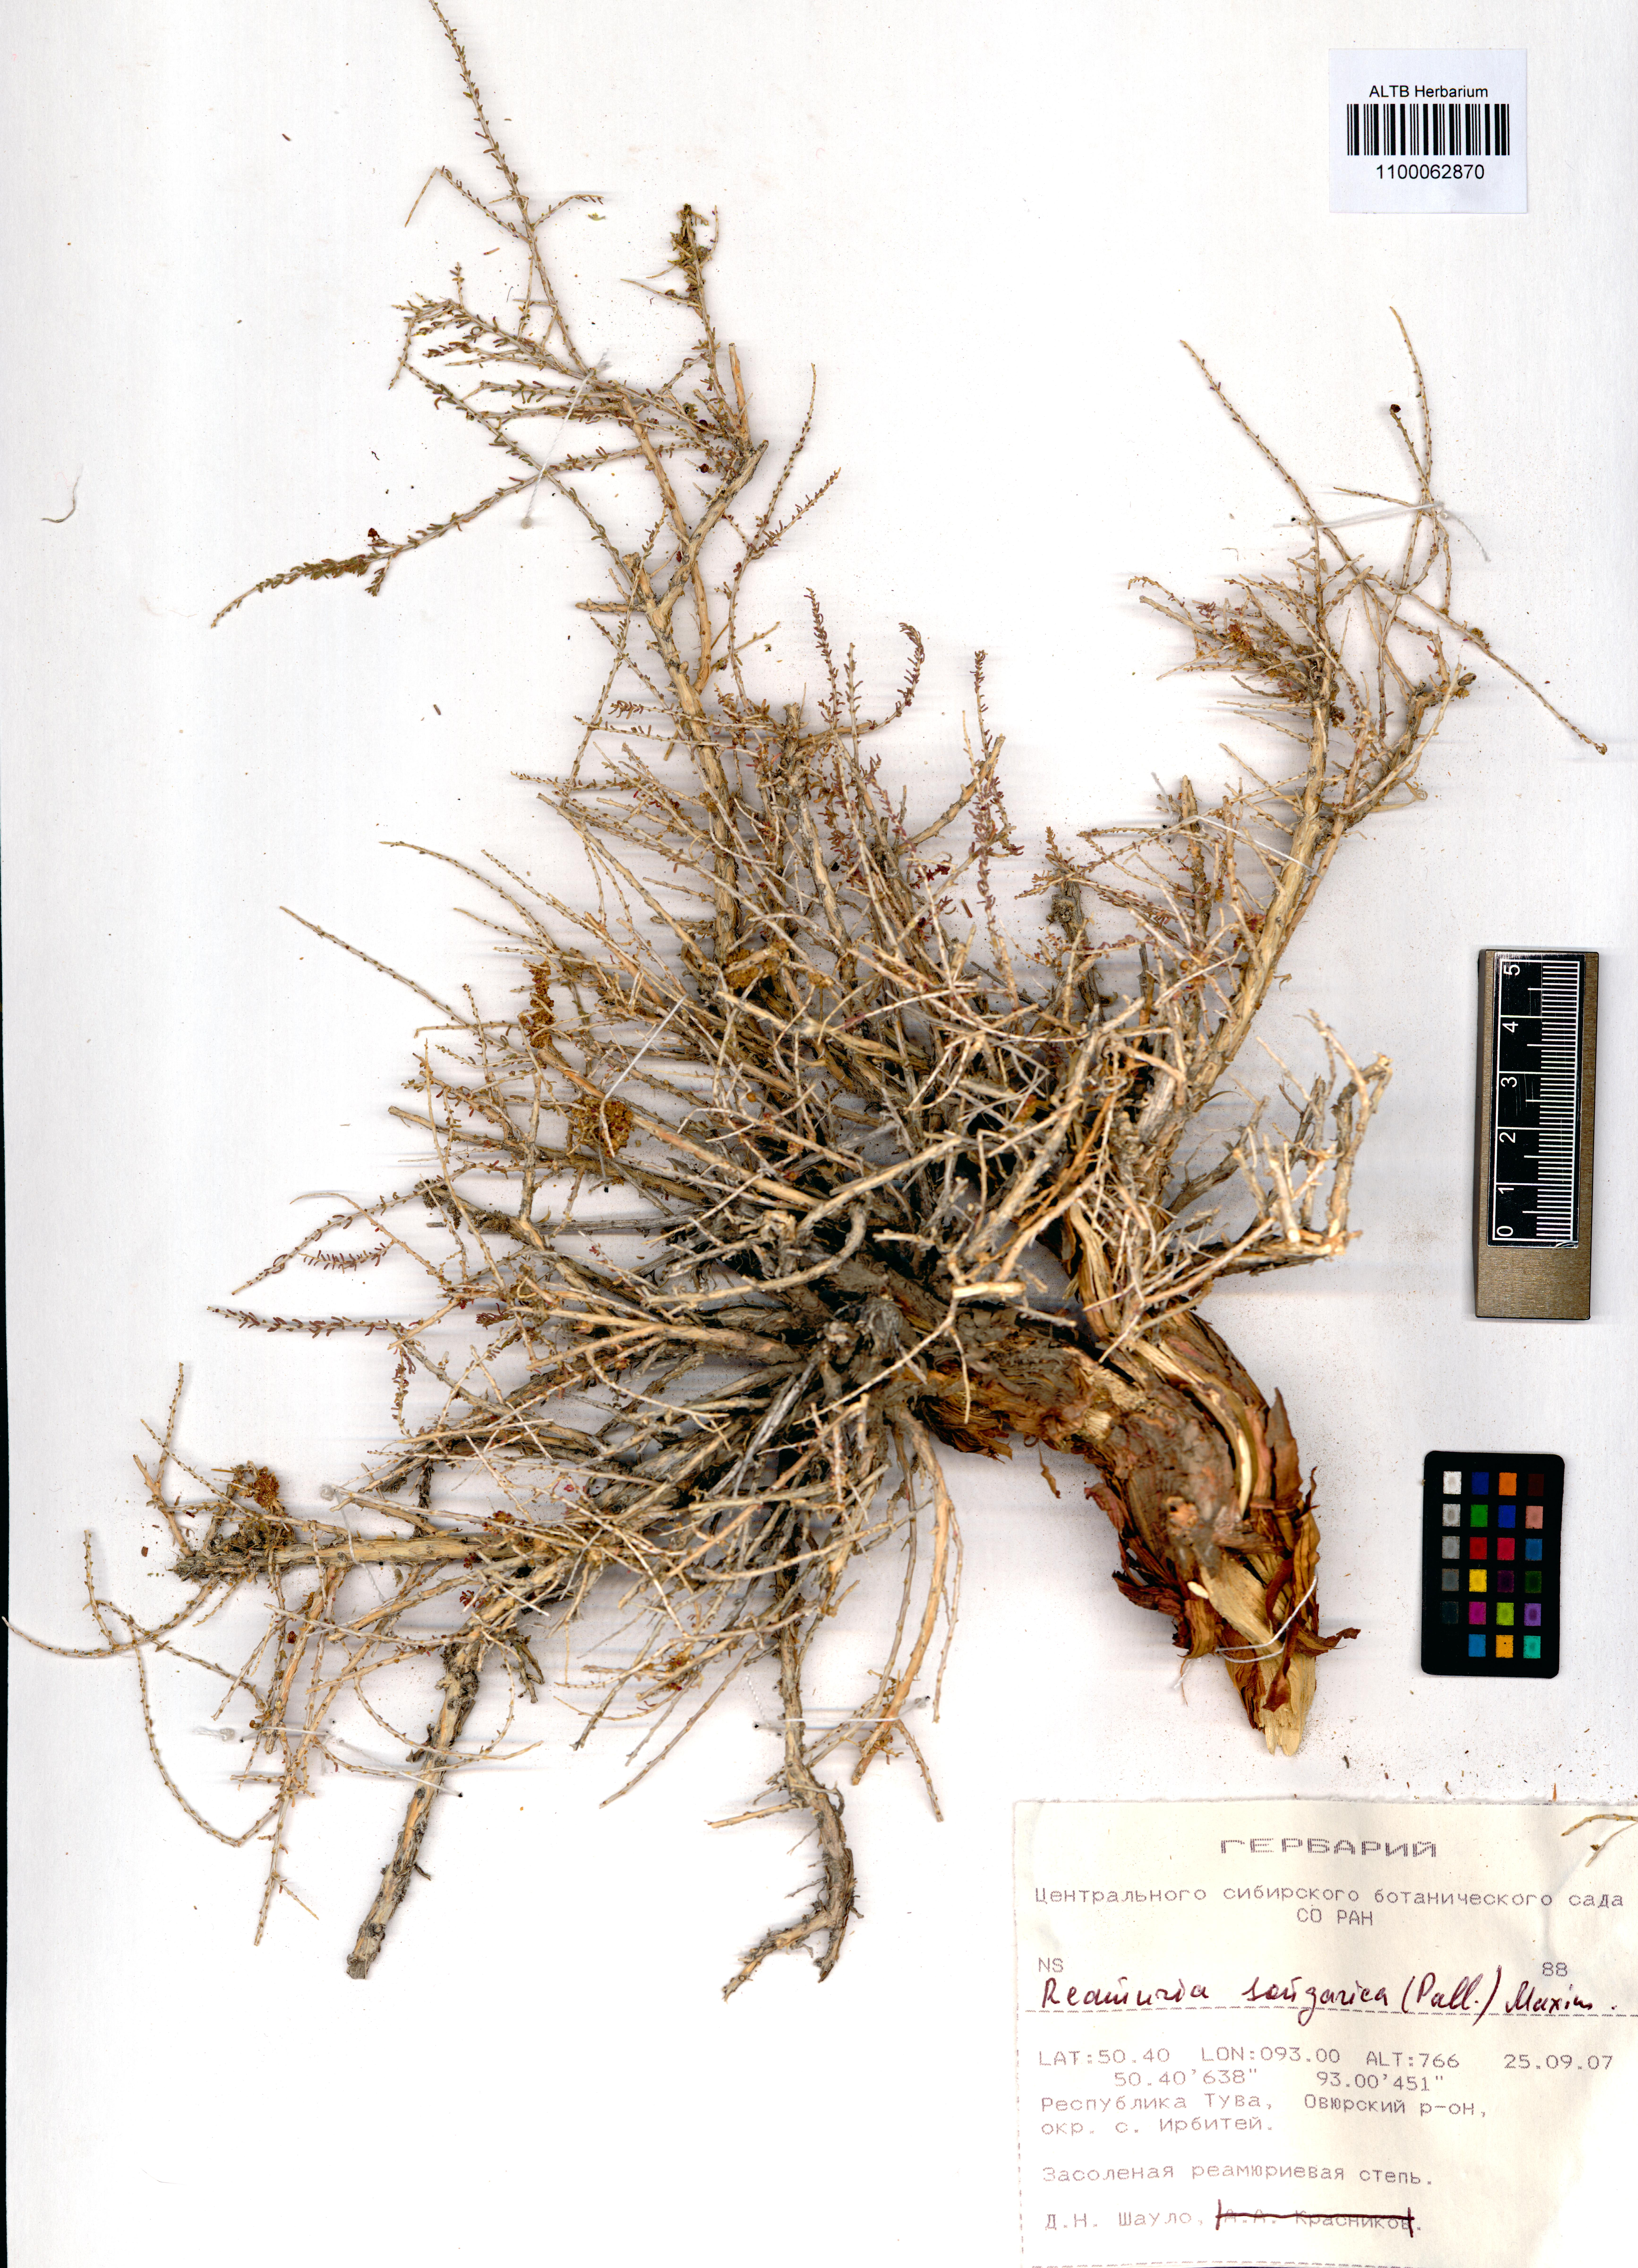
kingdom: Plantae
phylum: Tracheophyta
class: Magnoliopsida
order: Caryophyllales
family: Tamaricaceae
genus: Reaumuria
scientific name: Reaumuria songarica
